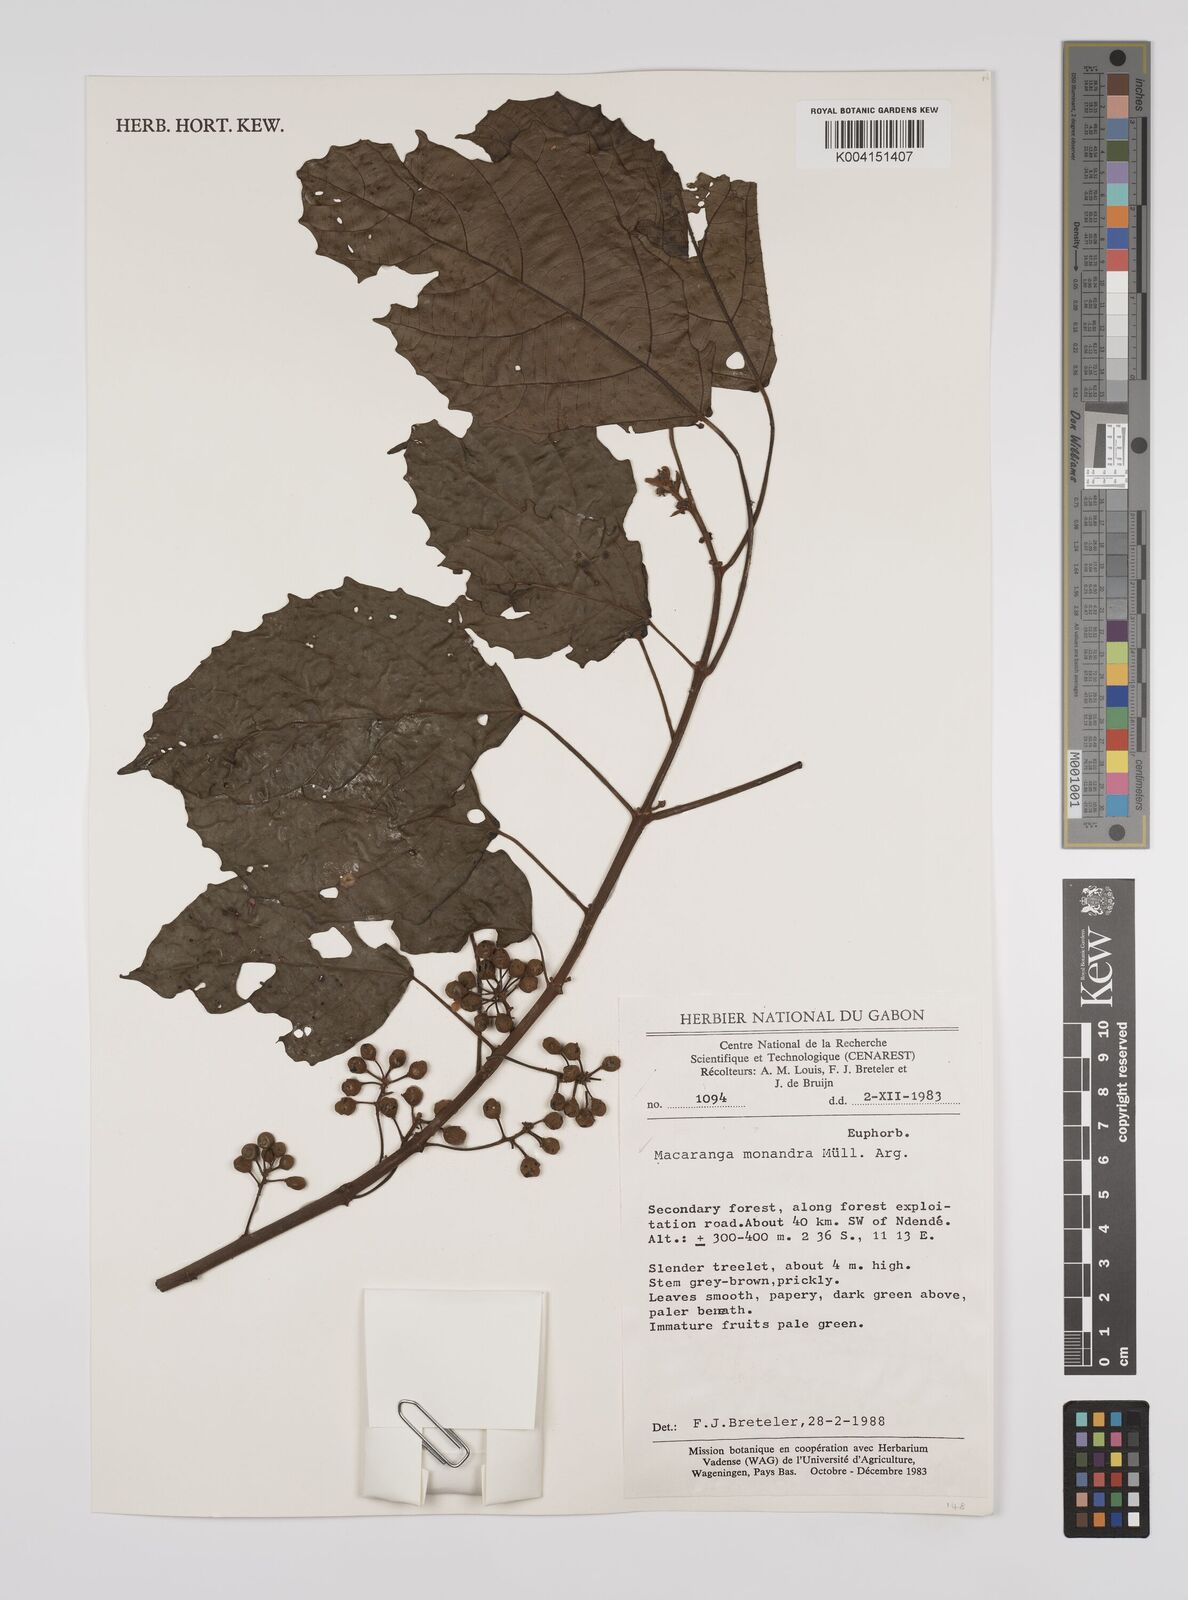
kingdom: Plantae
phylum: Tracheophyta
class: Magnoliopsida
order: Malpighiales
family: Euphorbiaceae
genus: Macaranga
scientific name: Macaranga monandra
